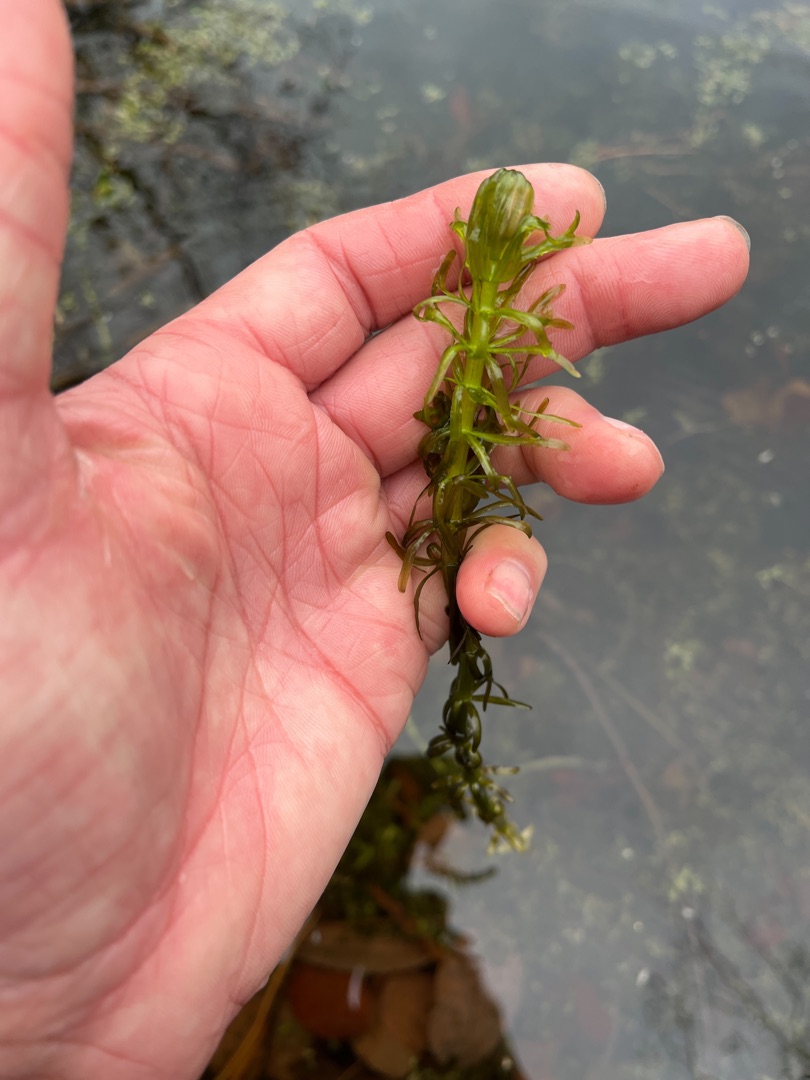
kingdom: Plantae
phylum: Tracheophyta
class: Magnoliopsida
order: Lamiales
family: Plantaginaceae
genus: Hippuris
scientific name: Hippuris vulgaris
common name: Vandspir
